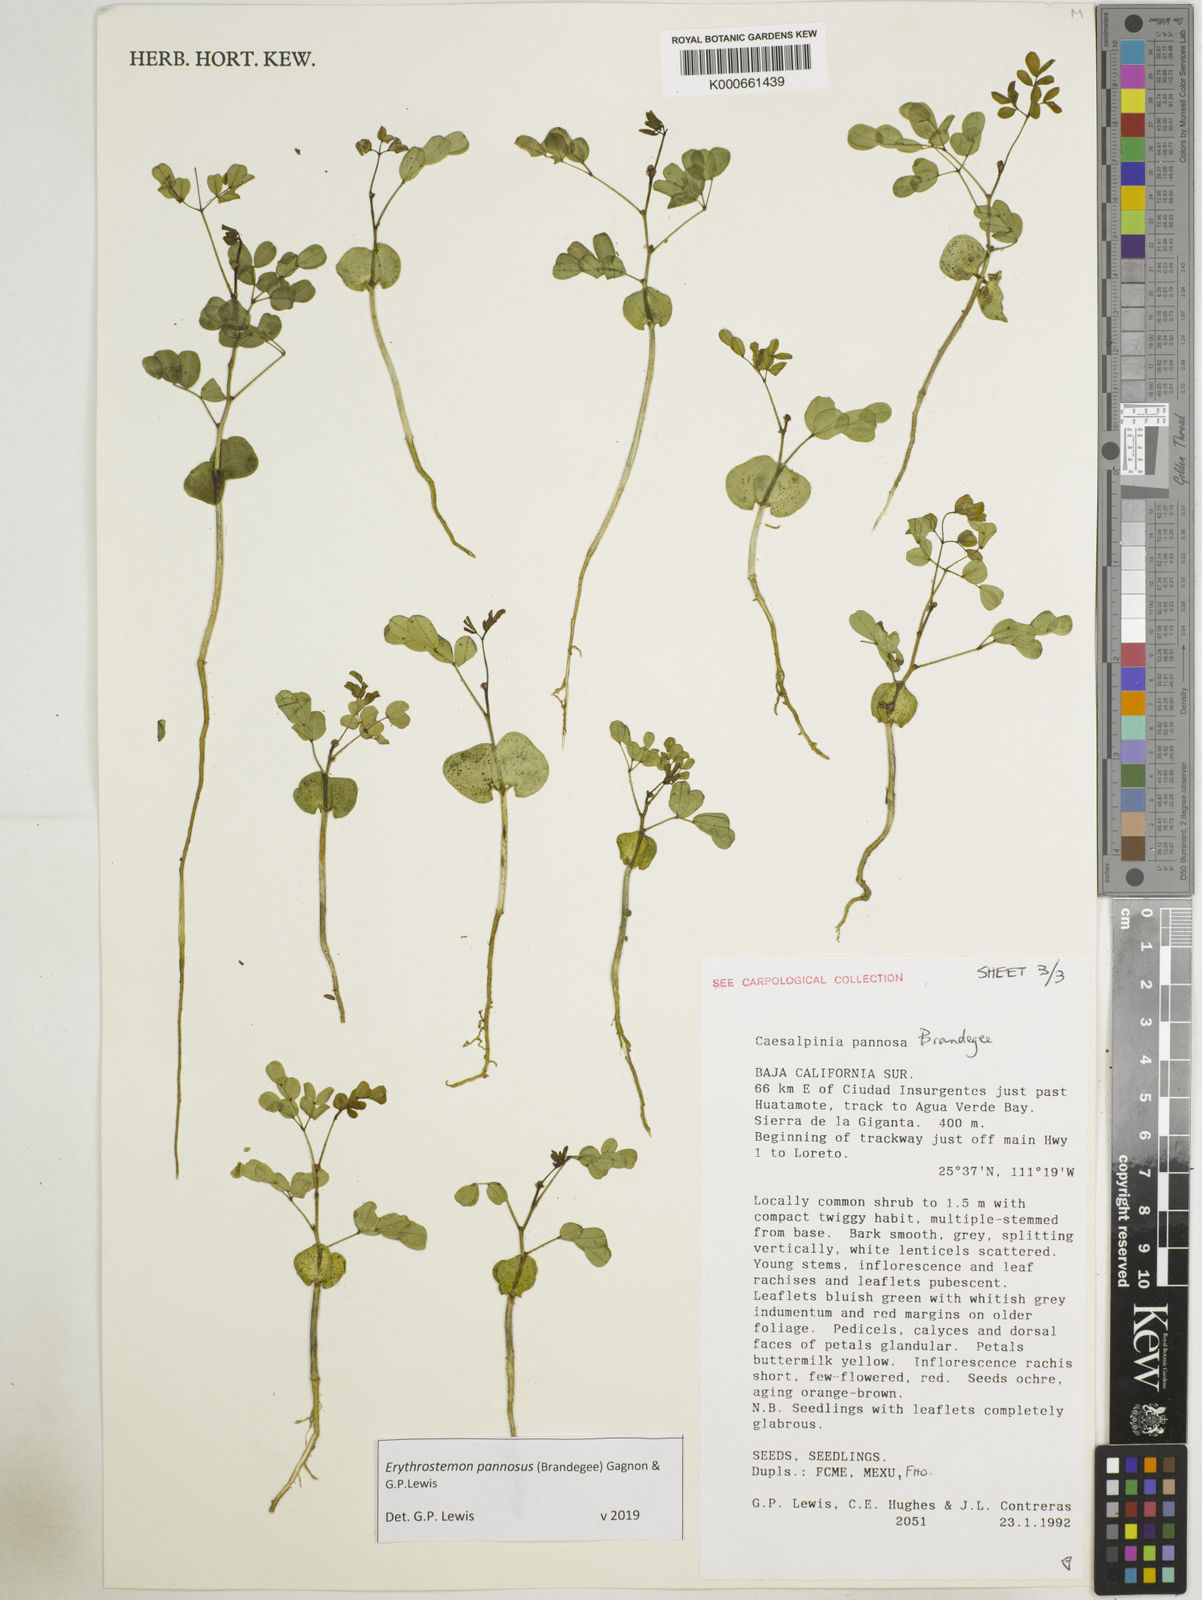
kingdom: Plantae
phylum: Tracheophyta
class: Magnoliopsida
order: Fabales
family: Fabaceae
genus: Erythrostemon
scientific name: Erythrostemon pannosus
